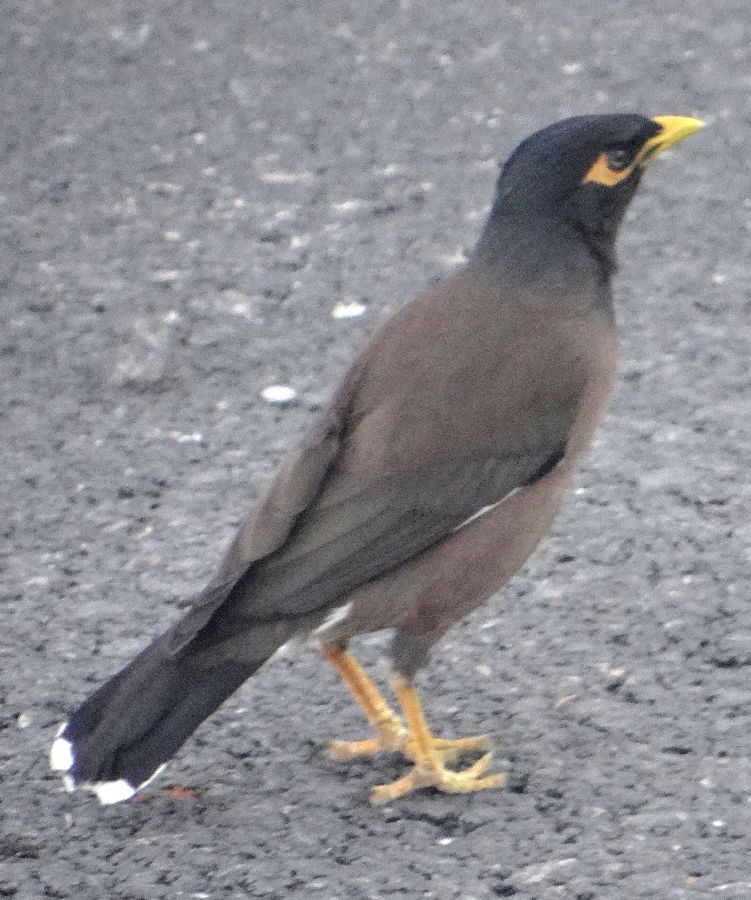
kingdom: Animalia
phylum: Chordata
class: Aves
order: Passeriformes
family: Sturnidae
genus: Acridotheres
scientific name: Acridotheres tristis
